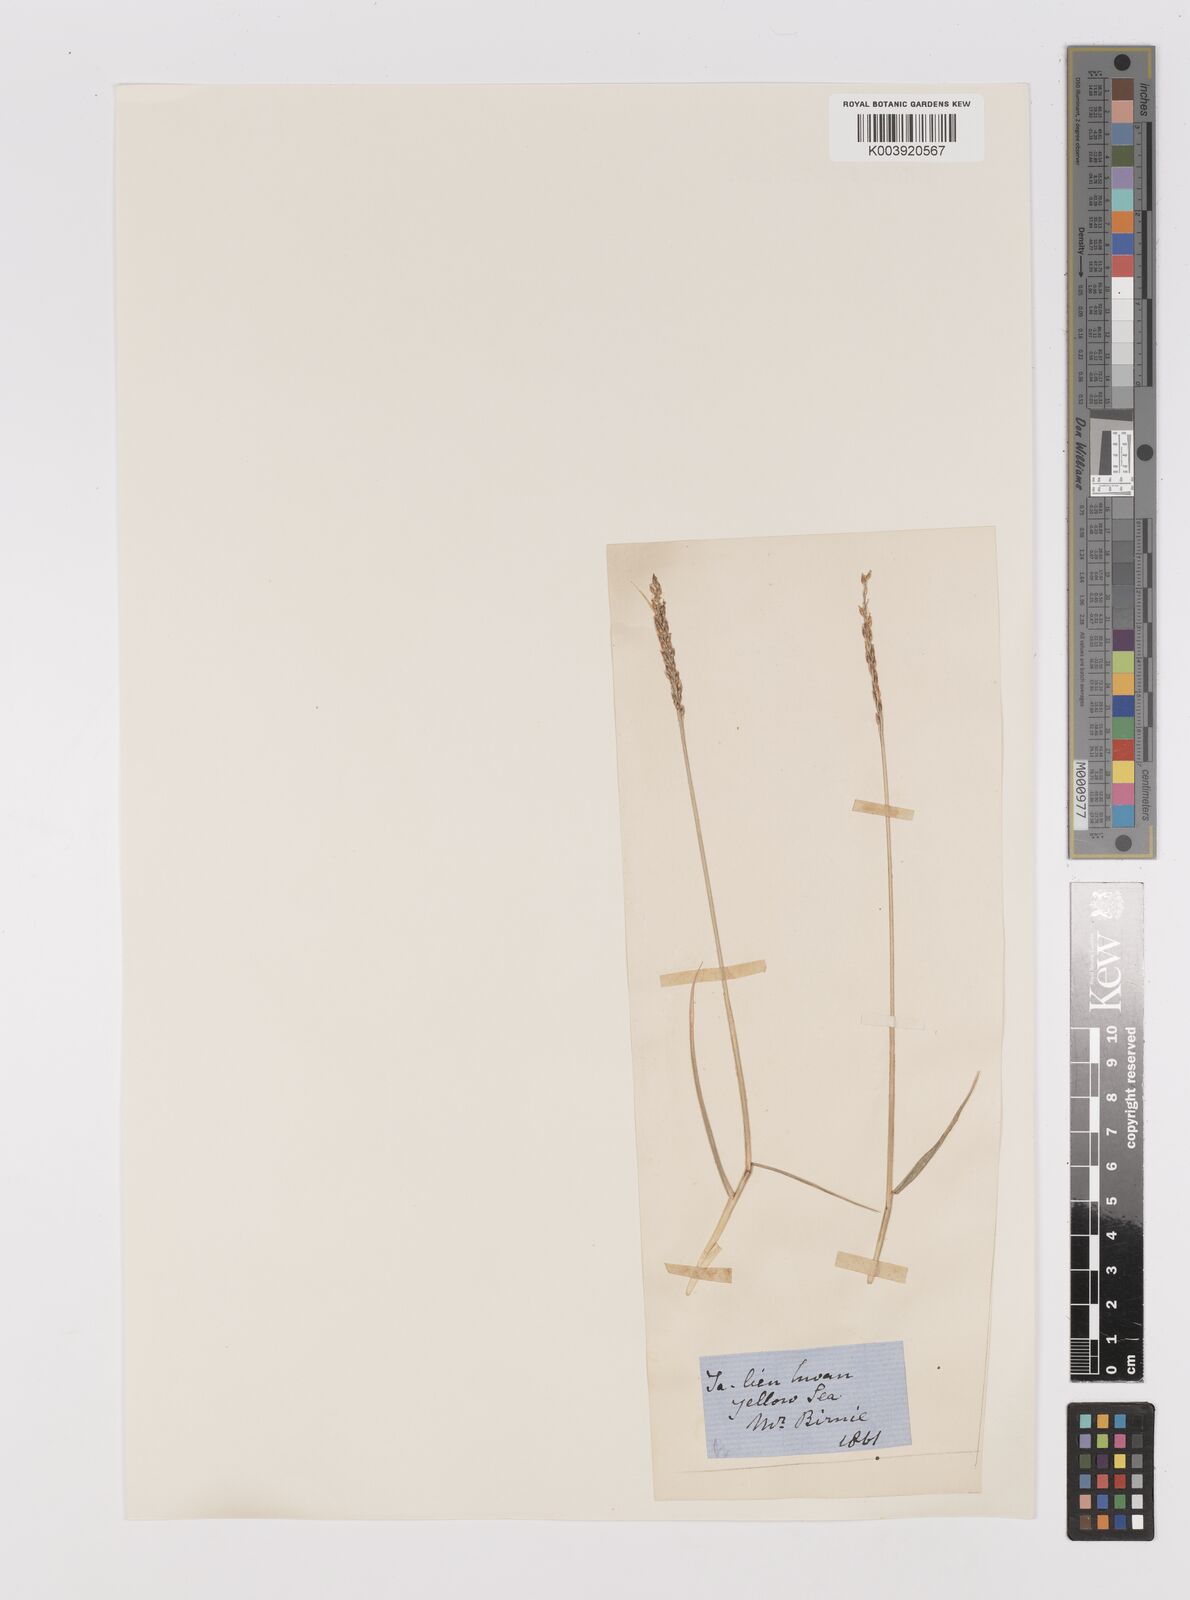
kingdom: Plantae
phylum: Tracheophyta
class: Liliopsida
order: Poales
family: Poaceae
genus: Zoysia
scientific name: Zoysia japonica
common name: Korean lawngrass
